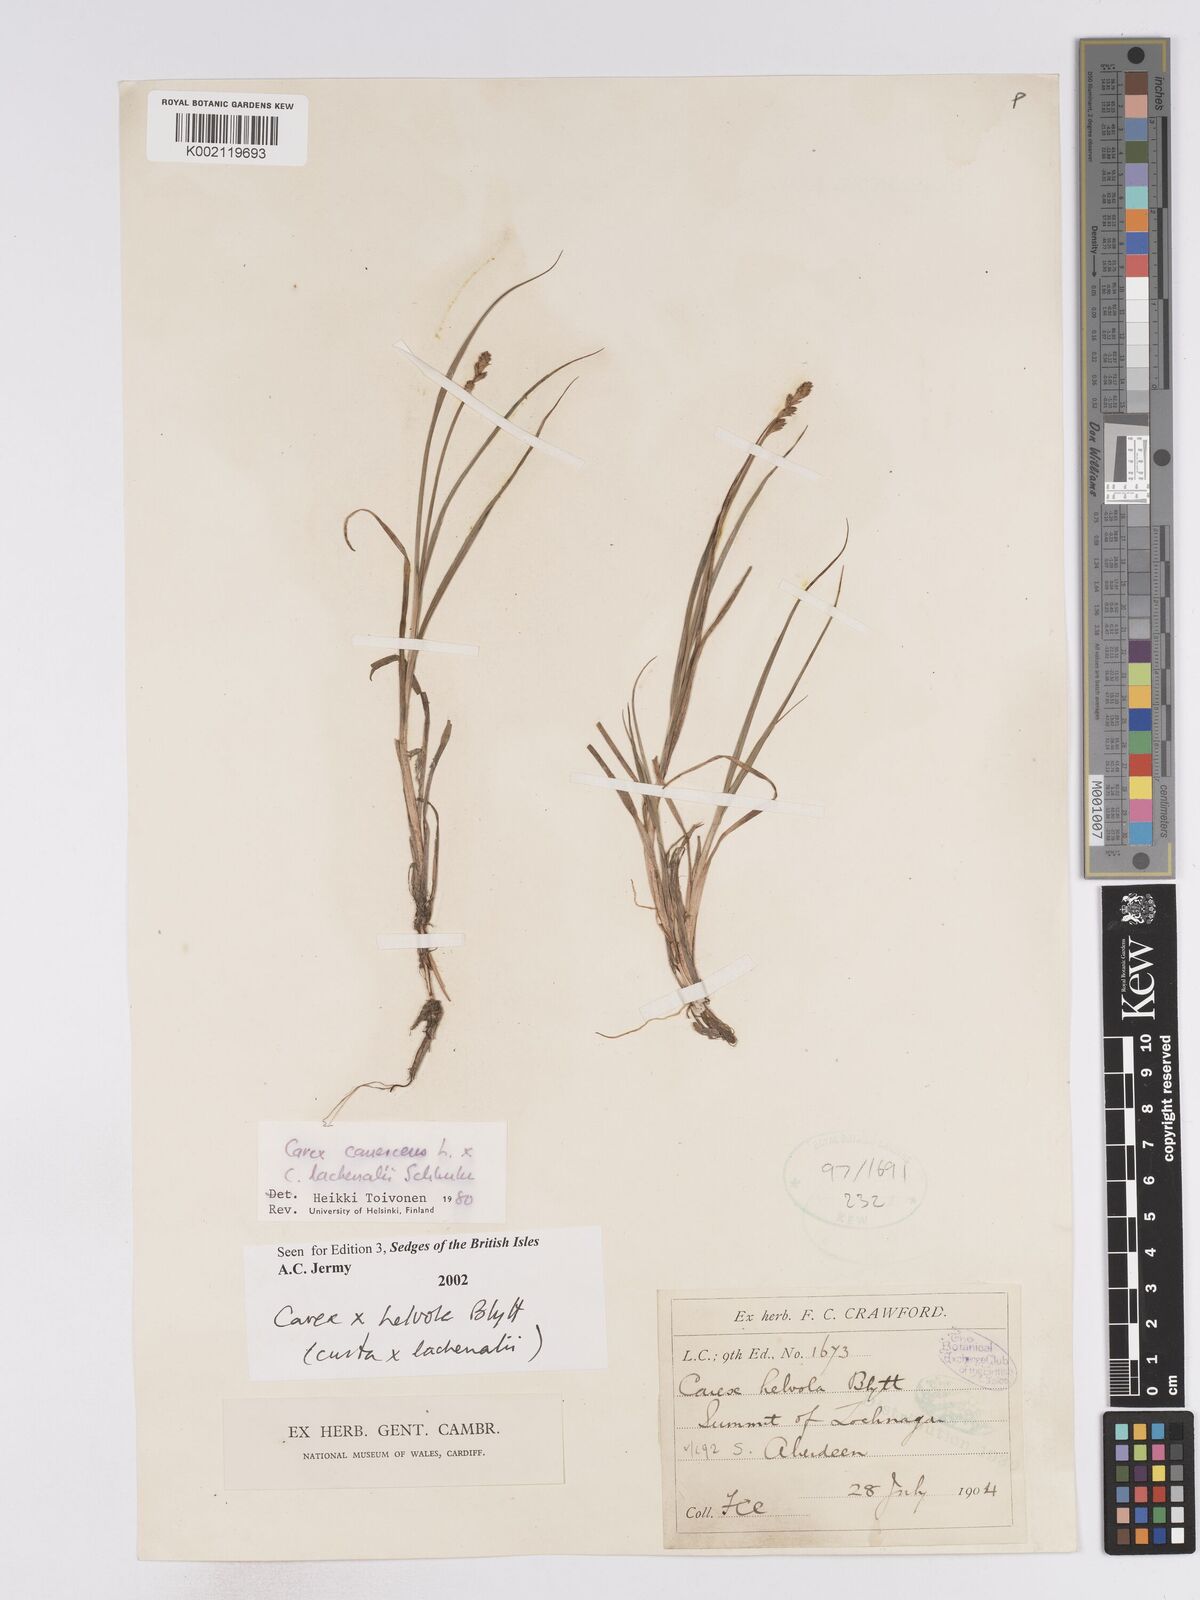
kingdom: Plantae
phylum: Tracheophyta
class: Liliopsida
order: Poales
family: Cyperaceae
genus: Carex
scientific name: Carex
